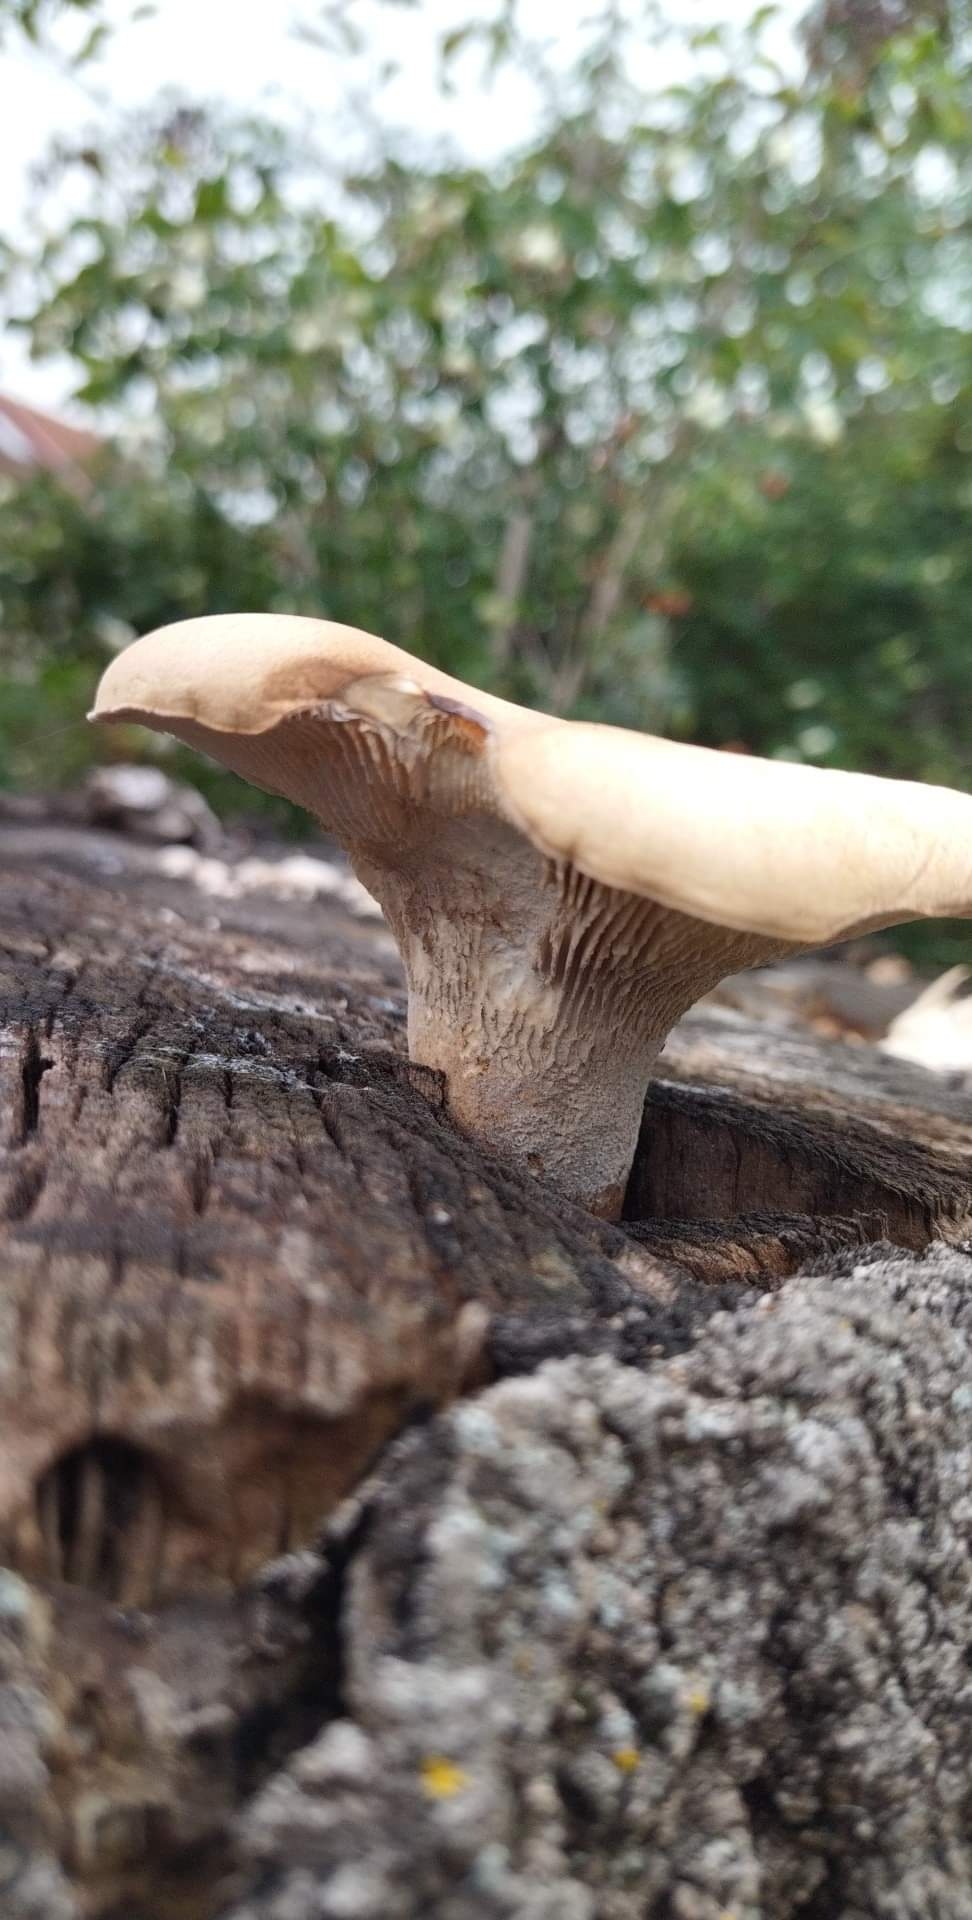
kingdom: Fungi
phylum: Basidiomycota
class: Agaricomycetes
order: Gloeophyllales
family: Gloeophyllaceae
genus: Neolentinus
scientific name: Neolentinus cyathiformis
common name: glat sejhat
